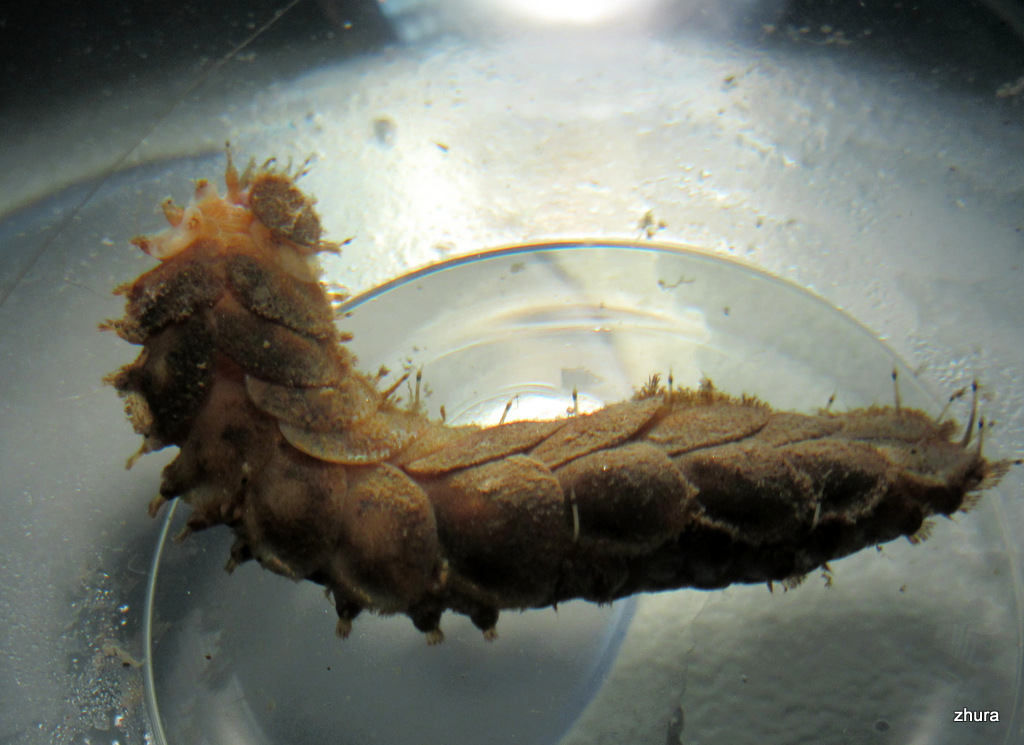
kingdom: Animalia
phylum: Annelida
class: Polychaeta
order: Phyllodocida
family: Polynoidae
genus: Lepidonotus
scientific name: Lepidonotus squamatus
